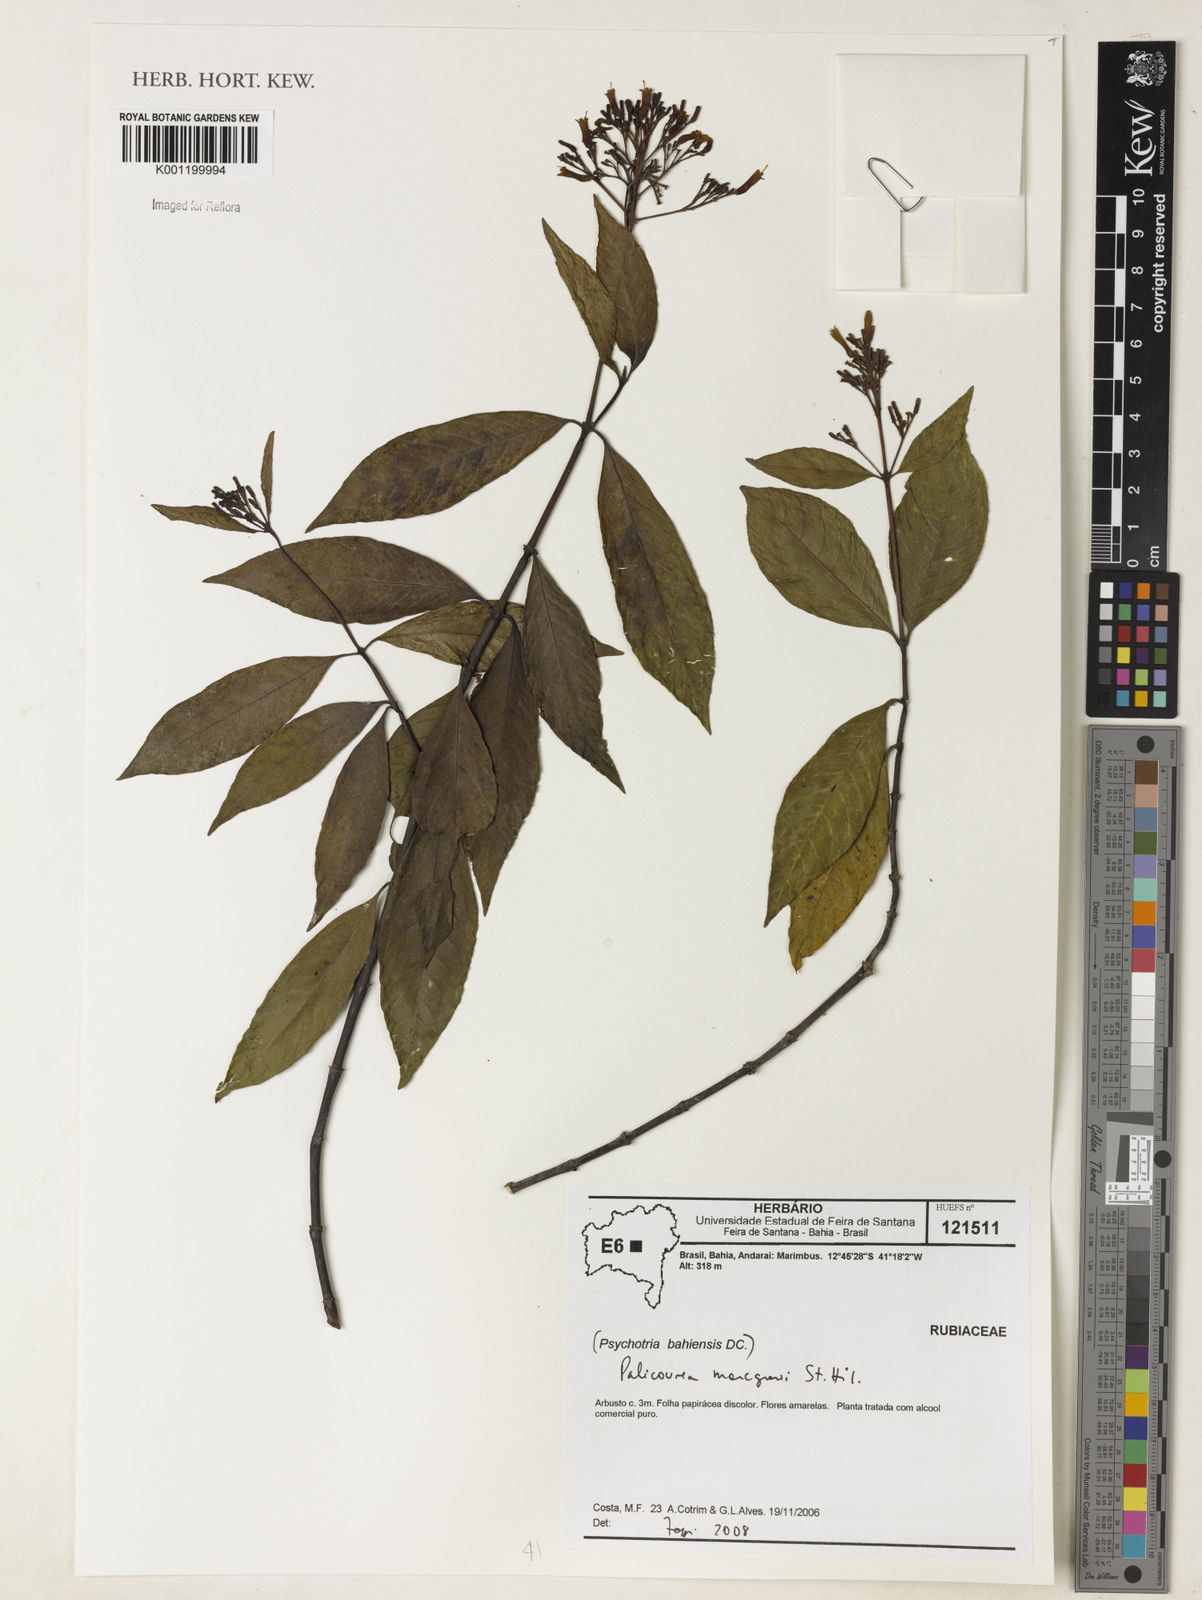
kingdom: Plantae
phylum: Tracheophyta
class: Magnoliopsida
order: Gentianales
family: Rubiaceae
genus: Palicourea
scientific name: Palicourea marcgravii
